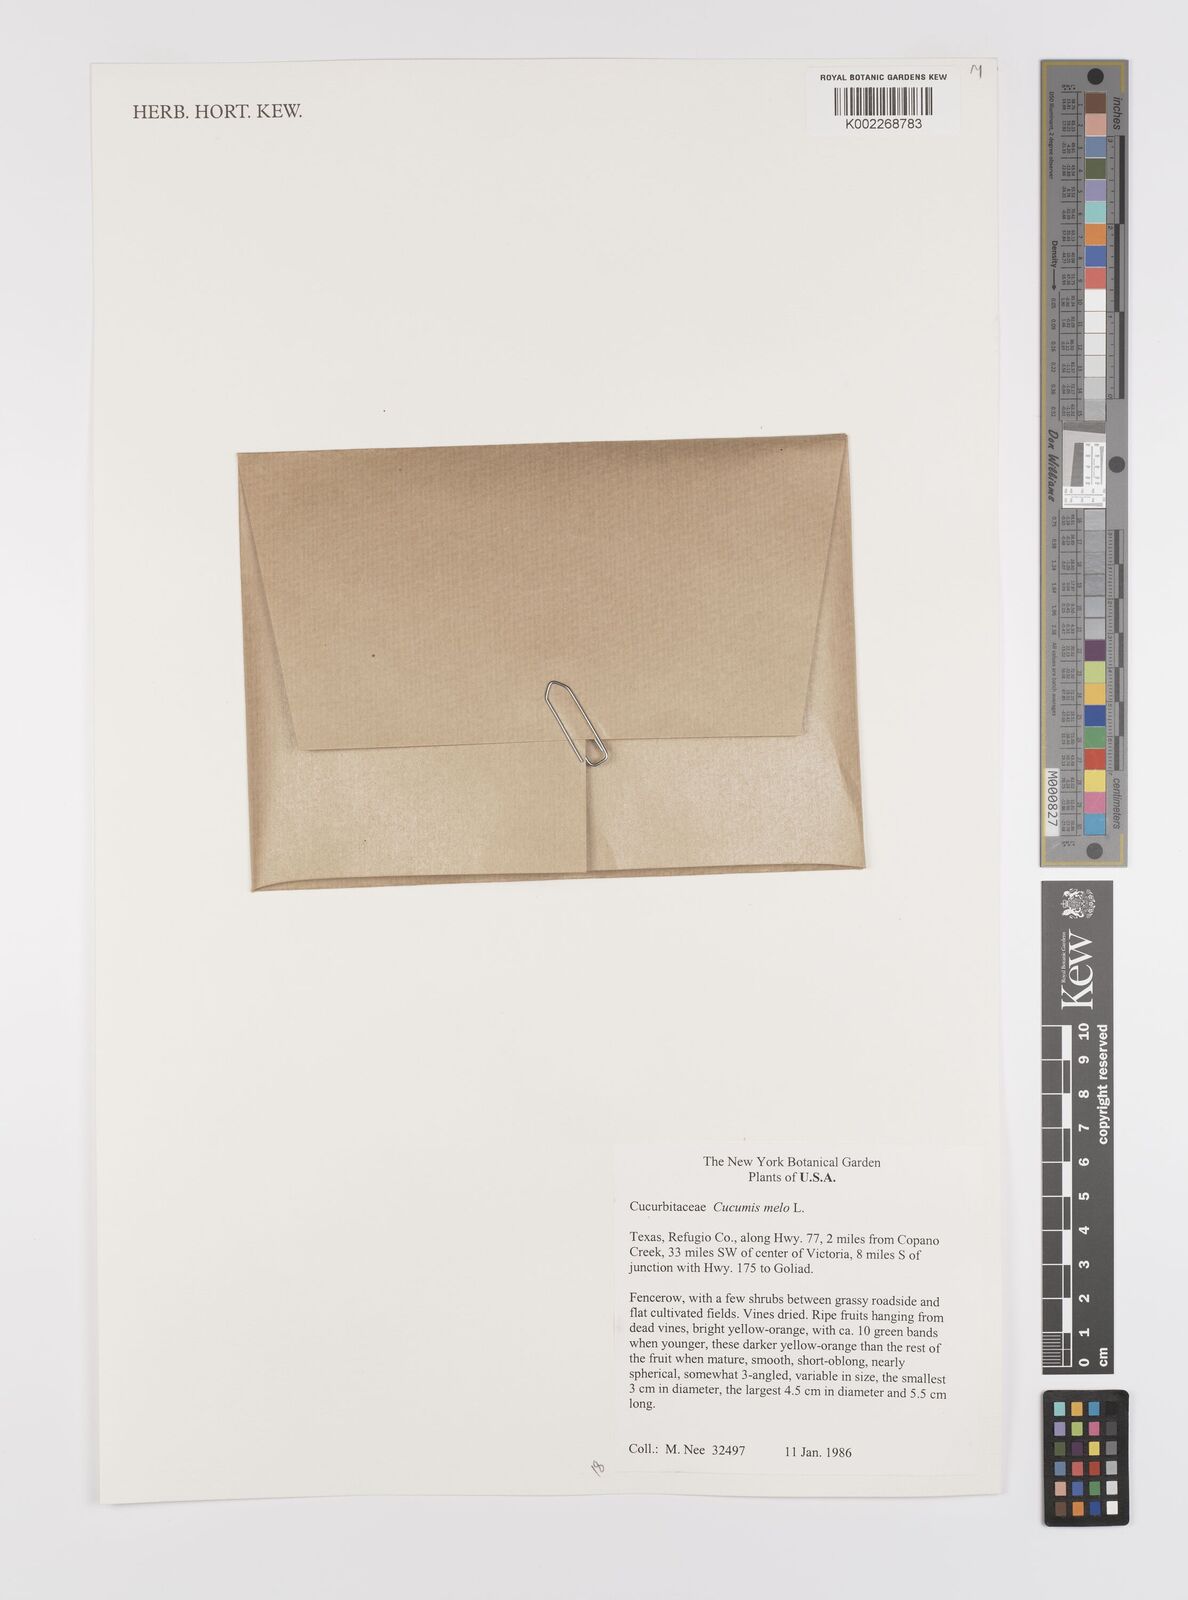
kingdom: Plantae
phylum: Tracheophyta
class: Magnoliopsida
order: Cucurbitales
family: Cucurbitaceae
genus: Cucumis
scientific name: Cucumis melo
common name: Melon
